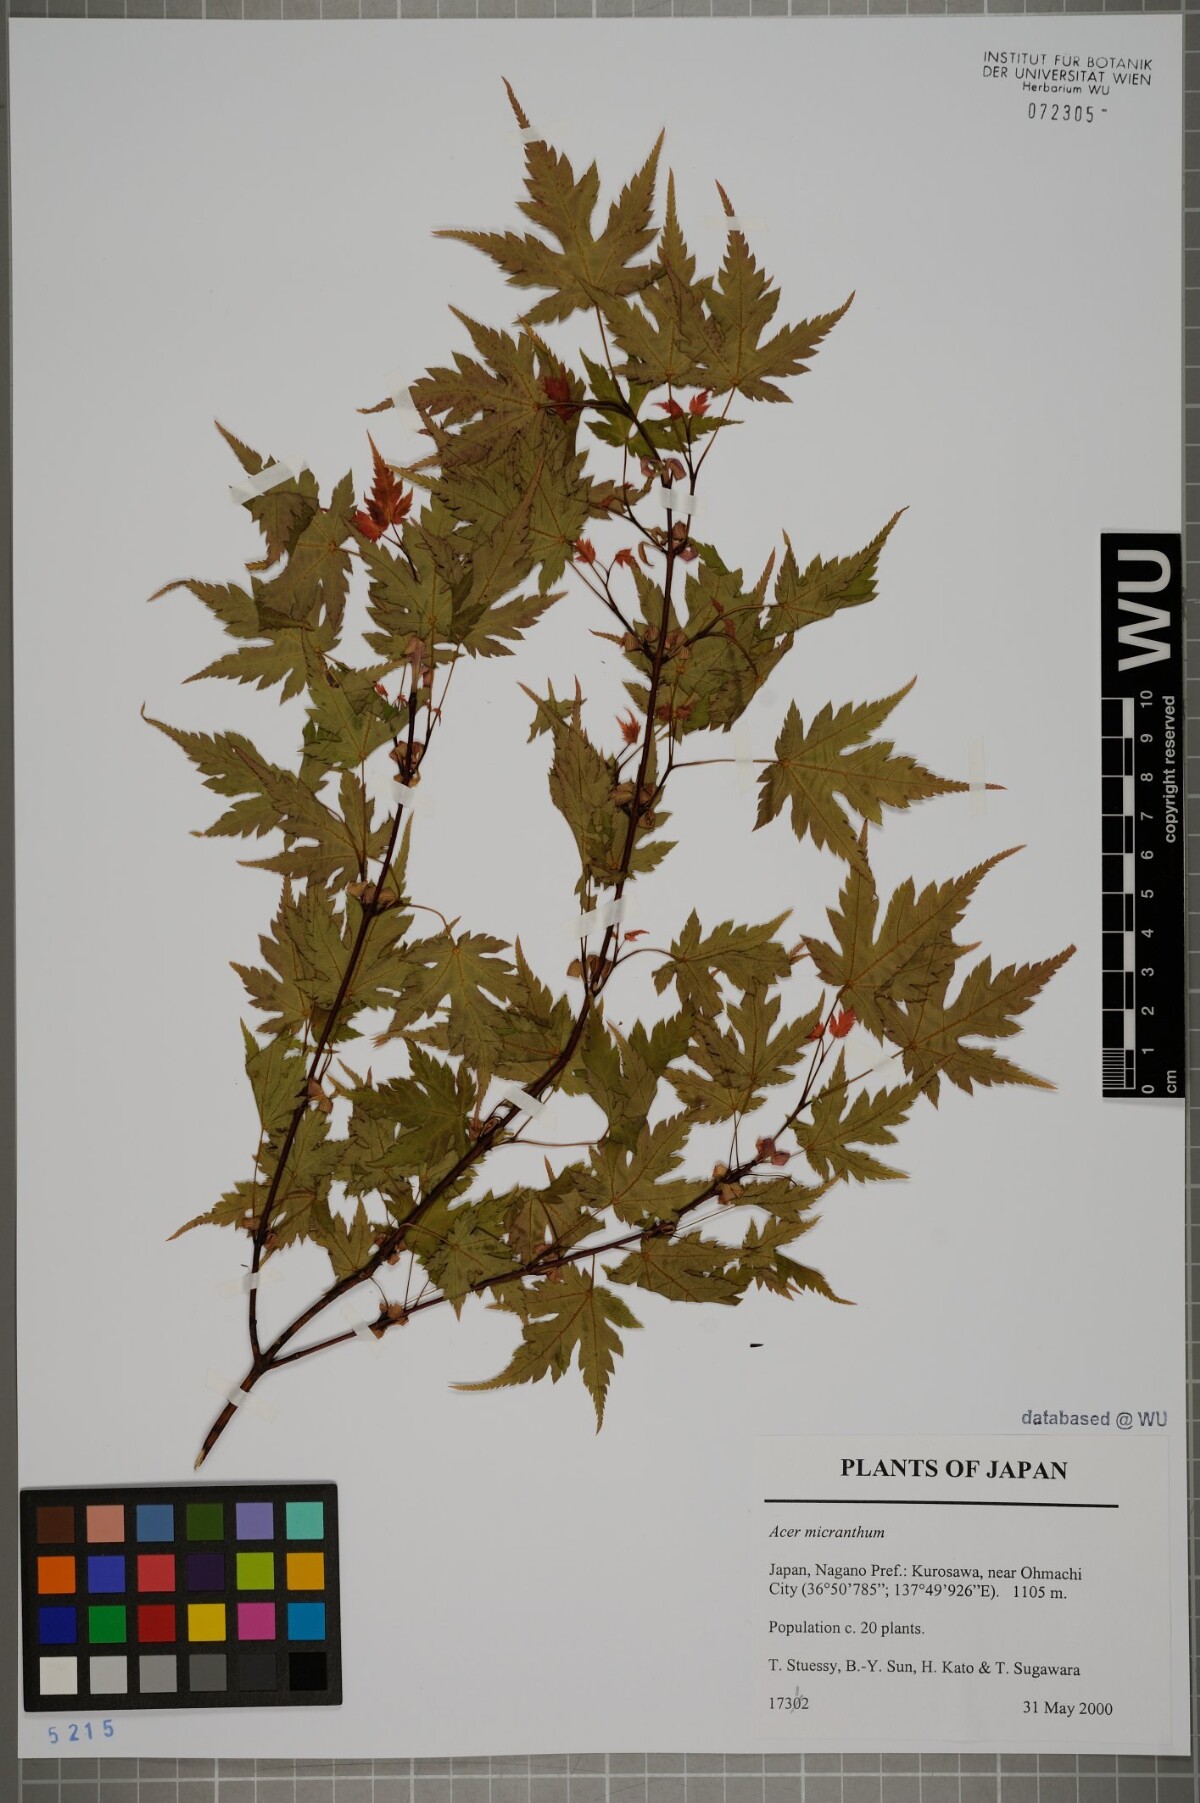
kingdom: Plantae
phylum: Tracheophyta
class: Magnoliopsida
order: Sapindales
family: Sapindaceae
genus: Acer
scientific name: Acer micranthum
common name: Komine maple
